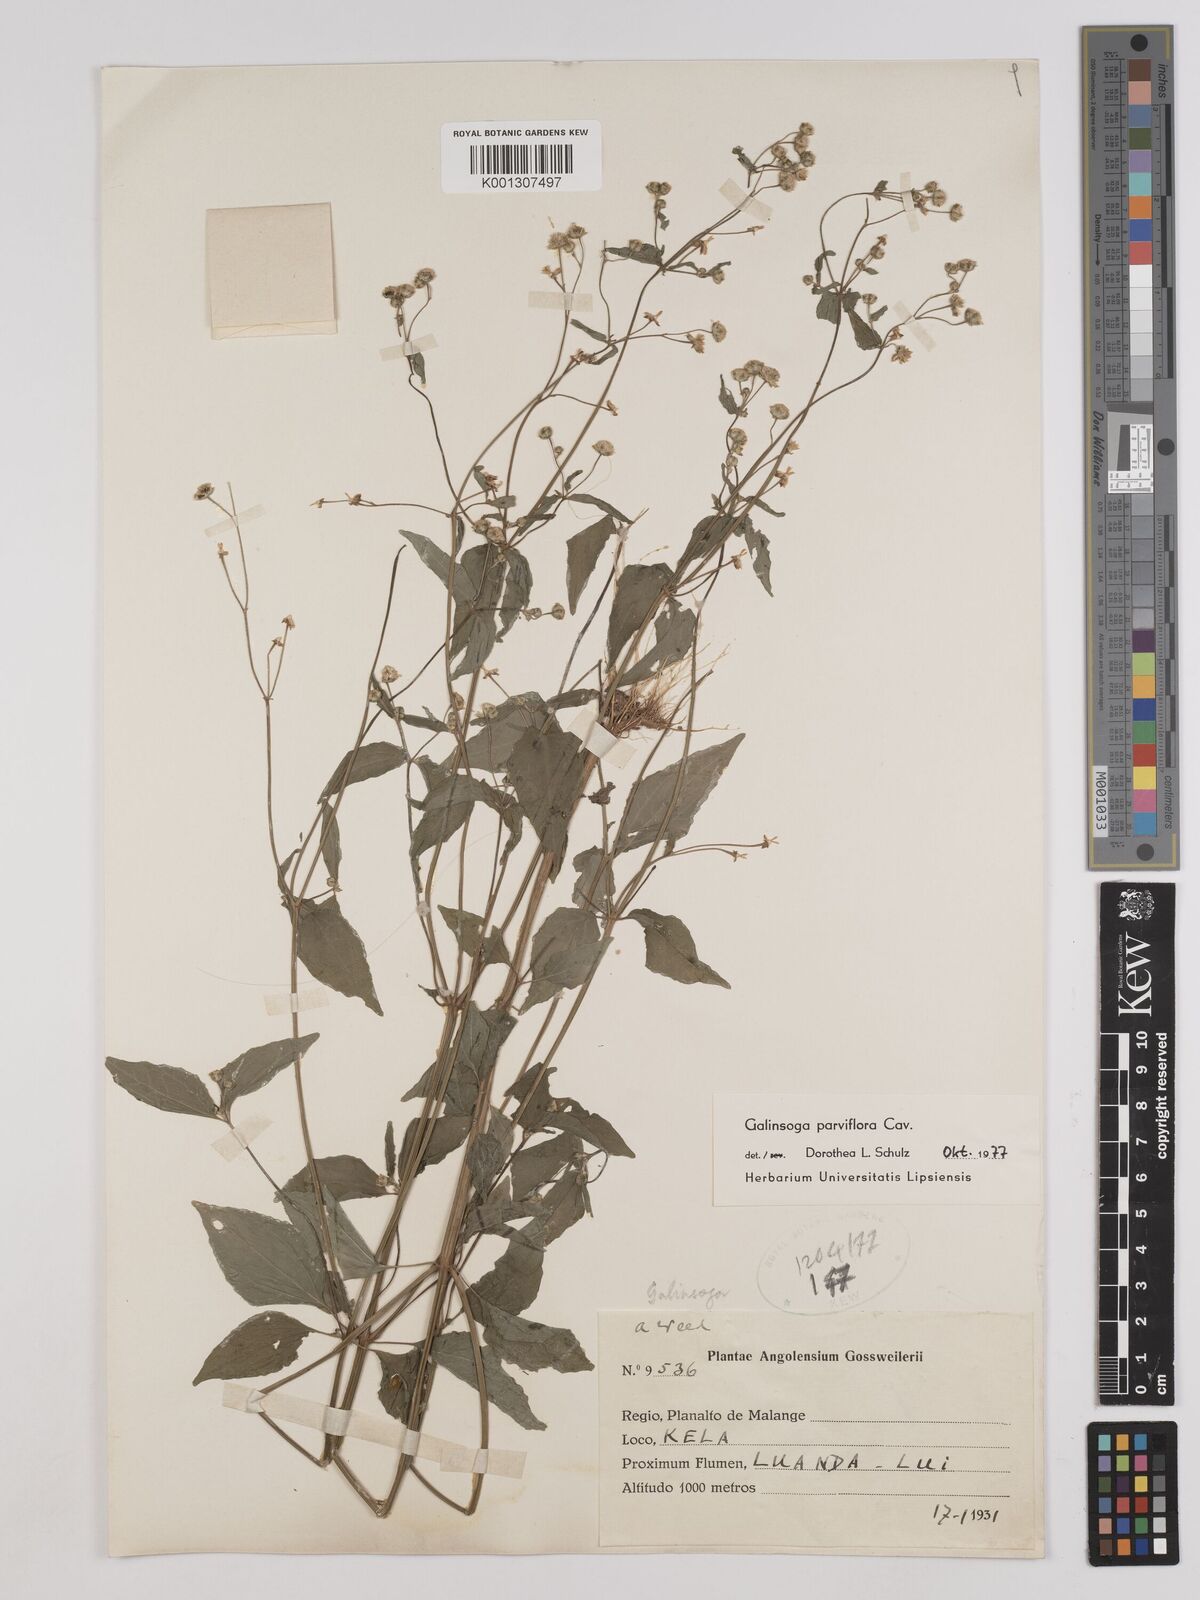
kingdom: Plantae
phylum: Tracheophyta
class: Magnoliopsida
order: Asterales
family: Asteraceae
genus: Galinsoga
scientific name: Galinsoga parviflora
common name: Gallant soldier
